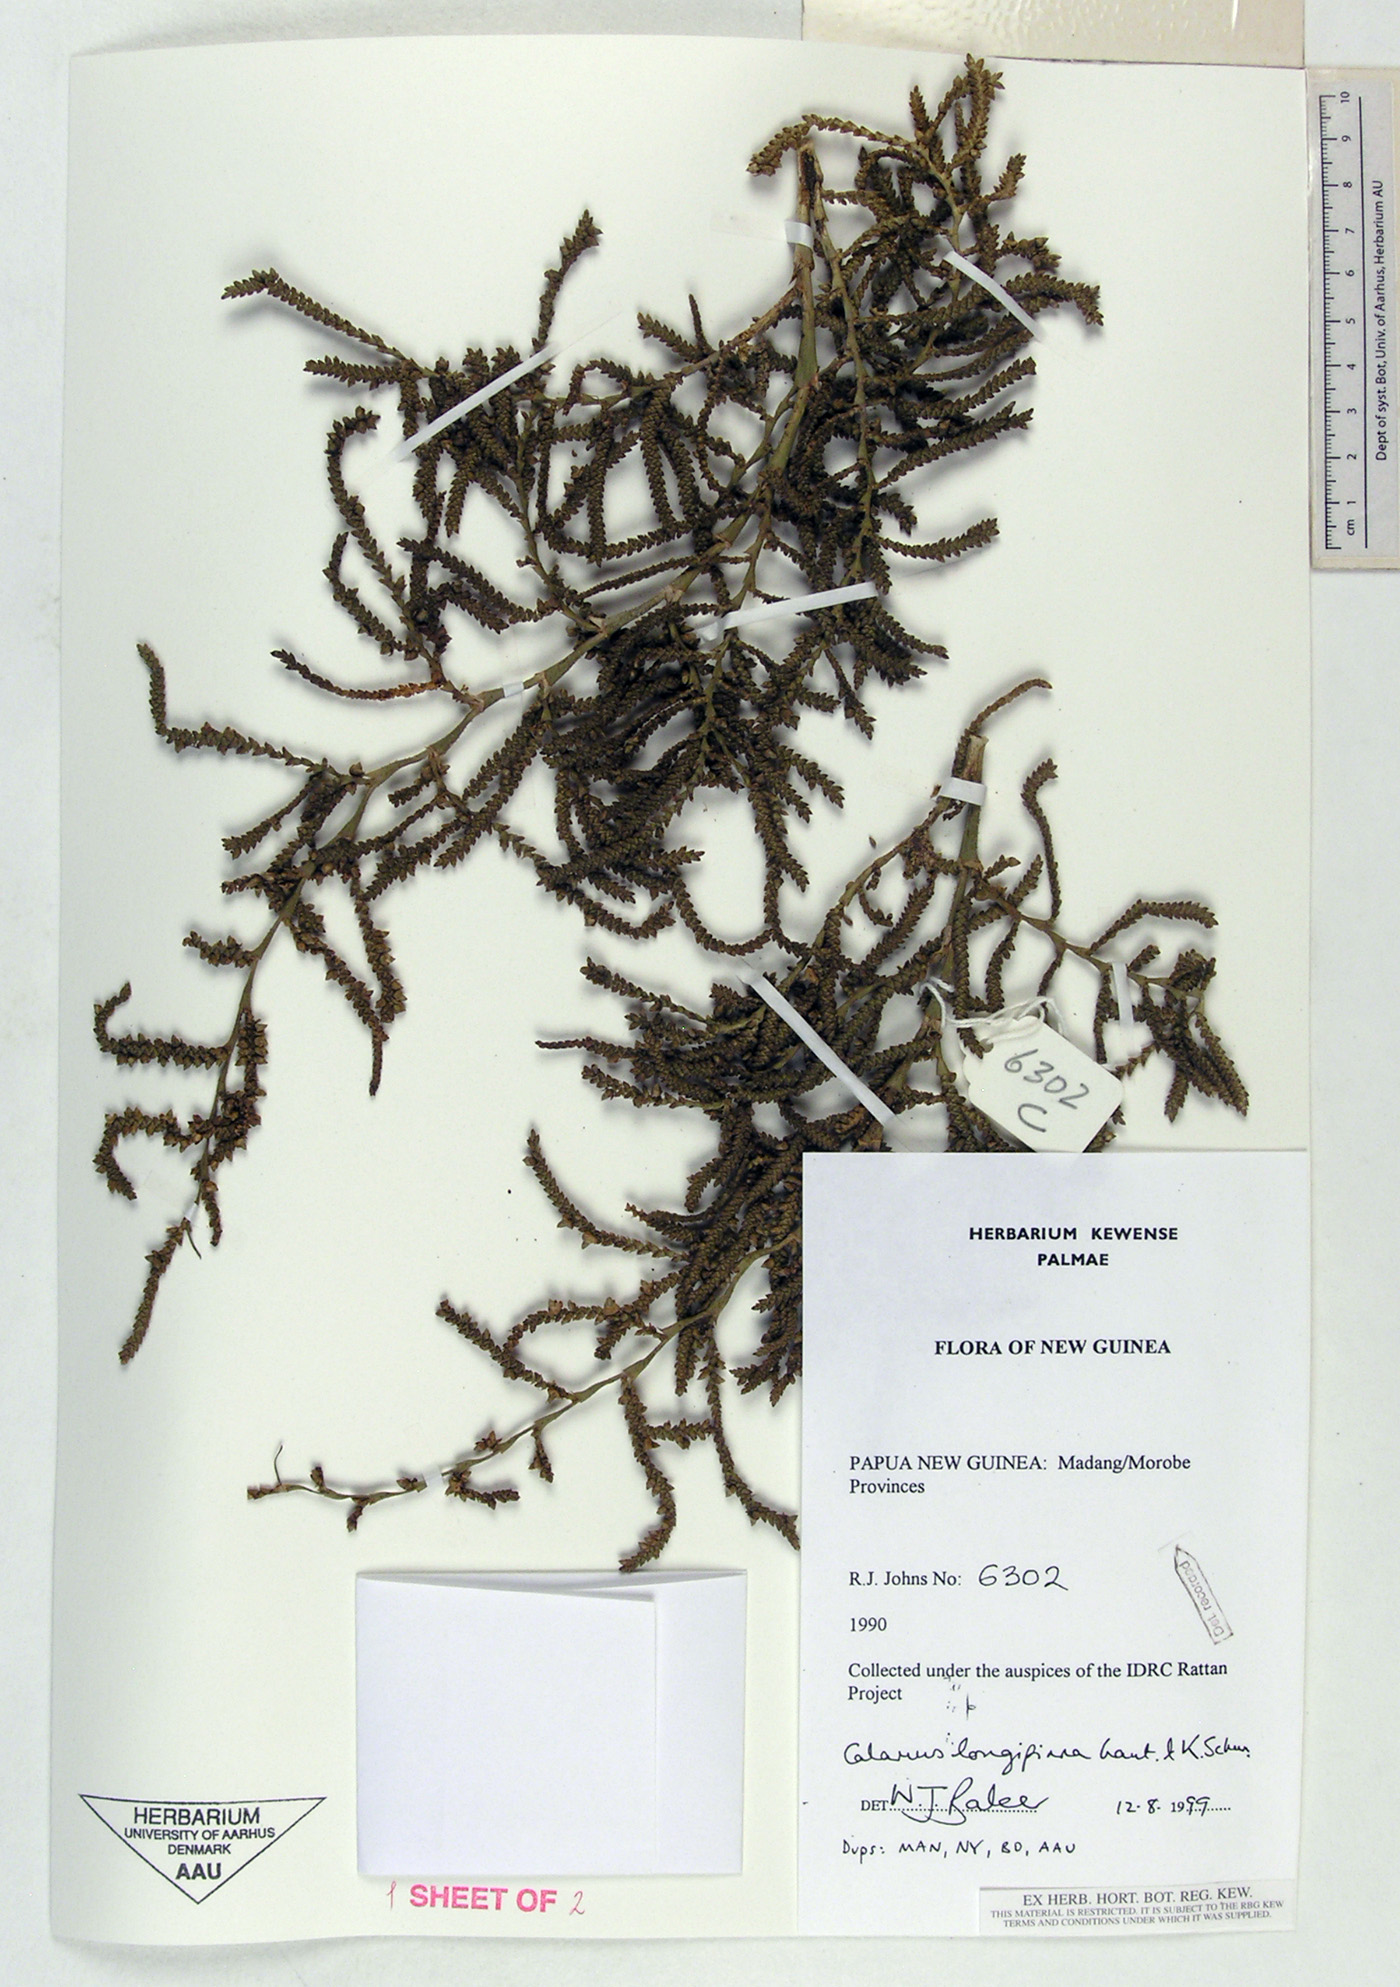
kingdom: Plantae
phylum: Tracheophyta
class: Liliopsida
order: Arecales
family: Arecaceae
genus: Calamus
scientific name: Calamus longipinna
